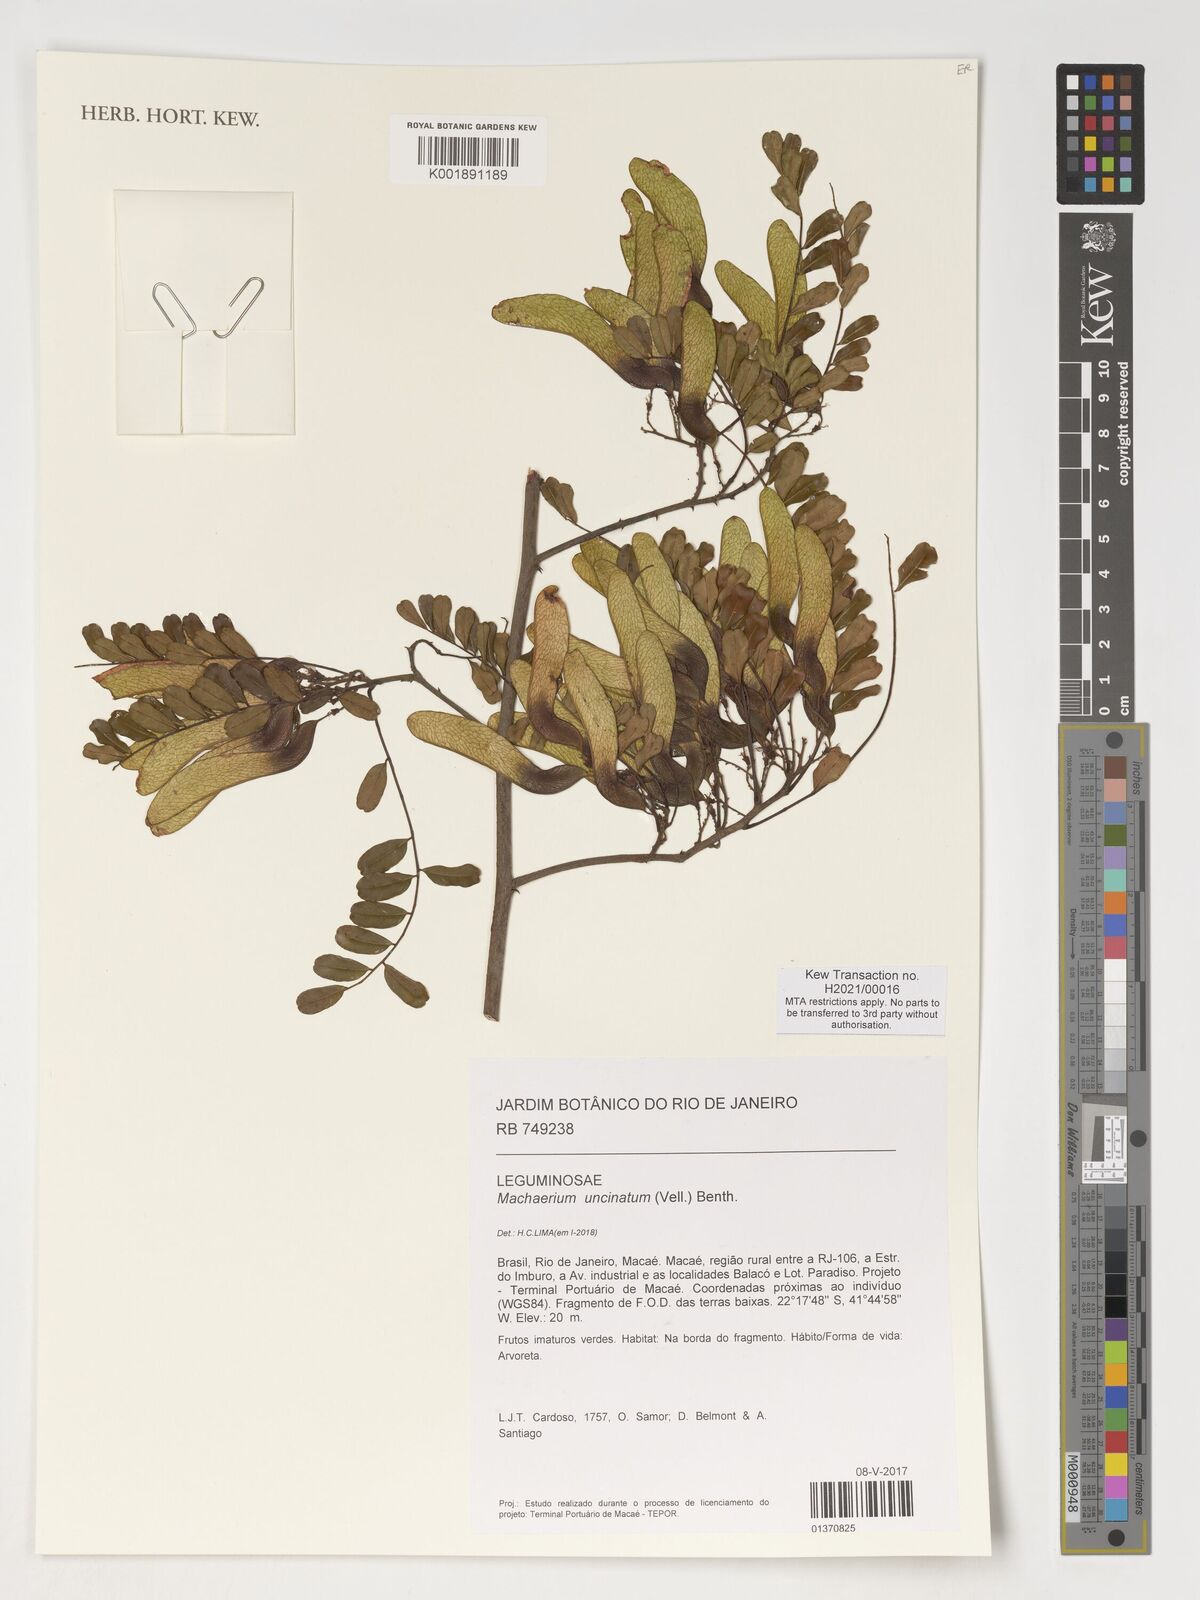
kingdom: Plantae
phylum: Tracheophyta
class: Magnoliopsida
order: Fabales
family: Fabaceae
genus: Machaerium
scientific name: Machaerium uncinatum
